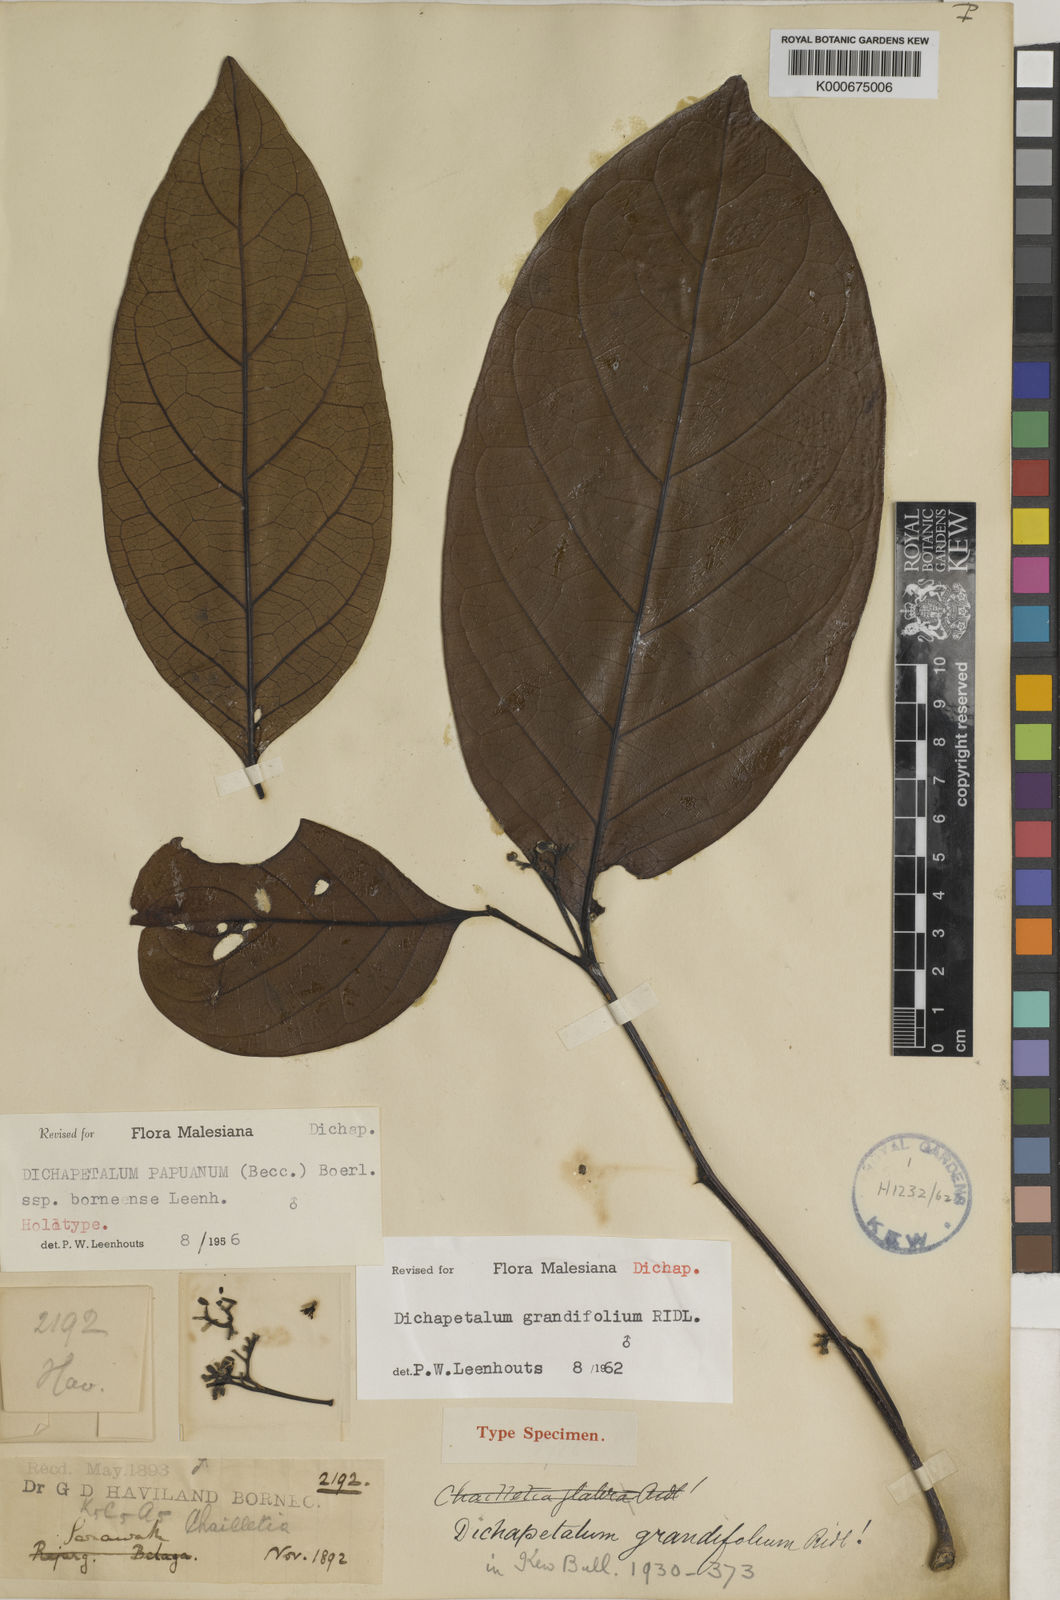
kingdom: Plantae
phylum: Tracheophyta
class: Magnoliopsida
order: Malpighiales
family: Dichapetalaceae
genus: Dichapetalum
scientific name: Dichapetalum grandifolium
